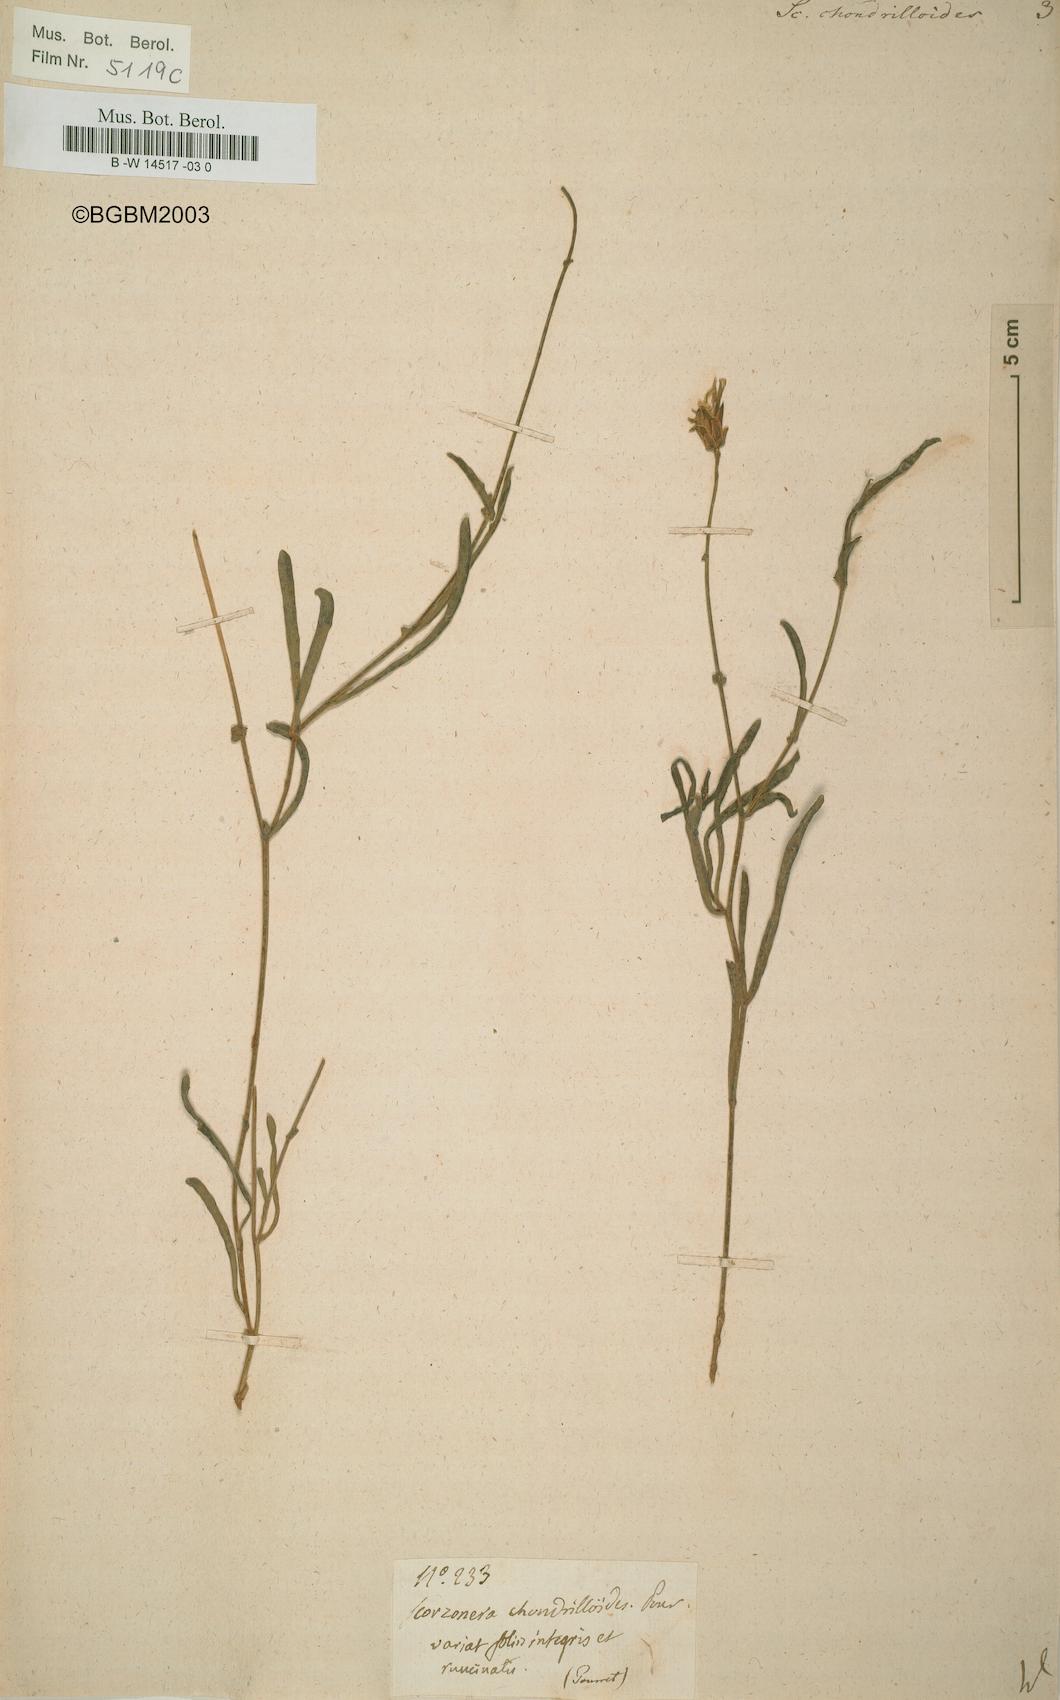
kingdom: Plantae
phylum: Tracheophyta
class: Magnoliopsida
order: Asterales
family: Asteraceae
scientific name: Asteraceae
